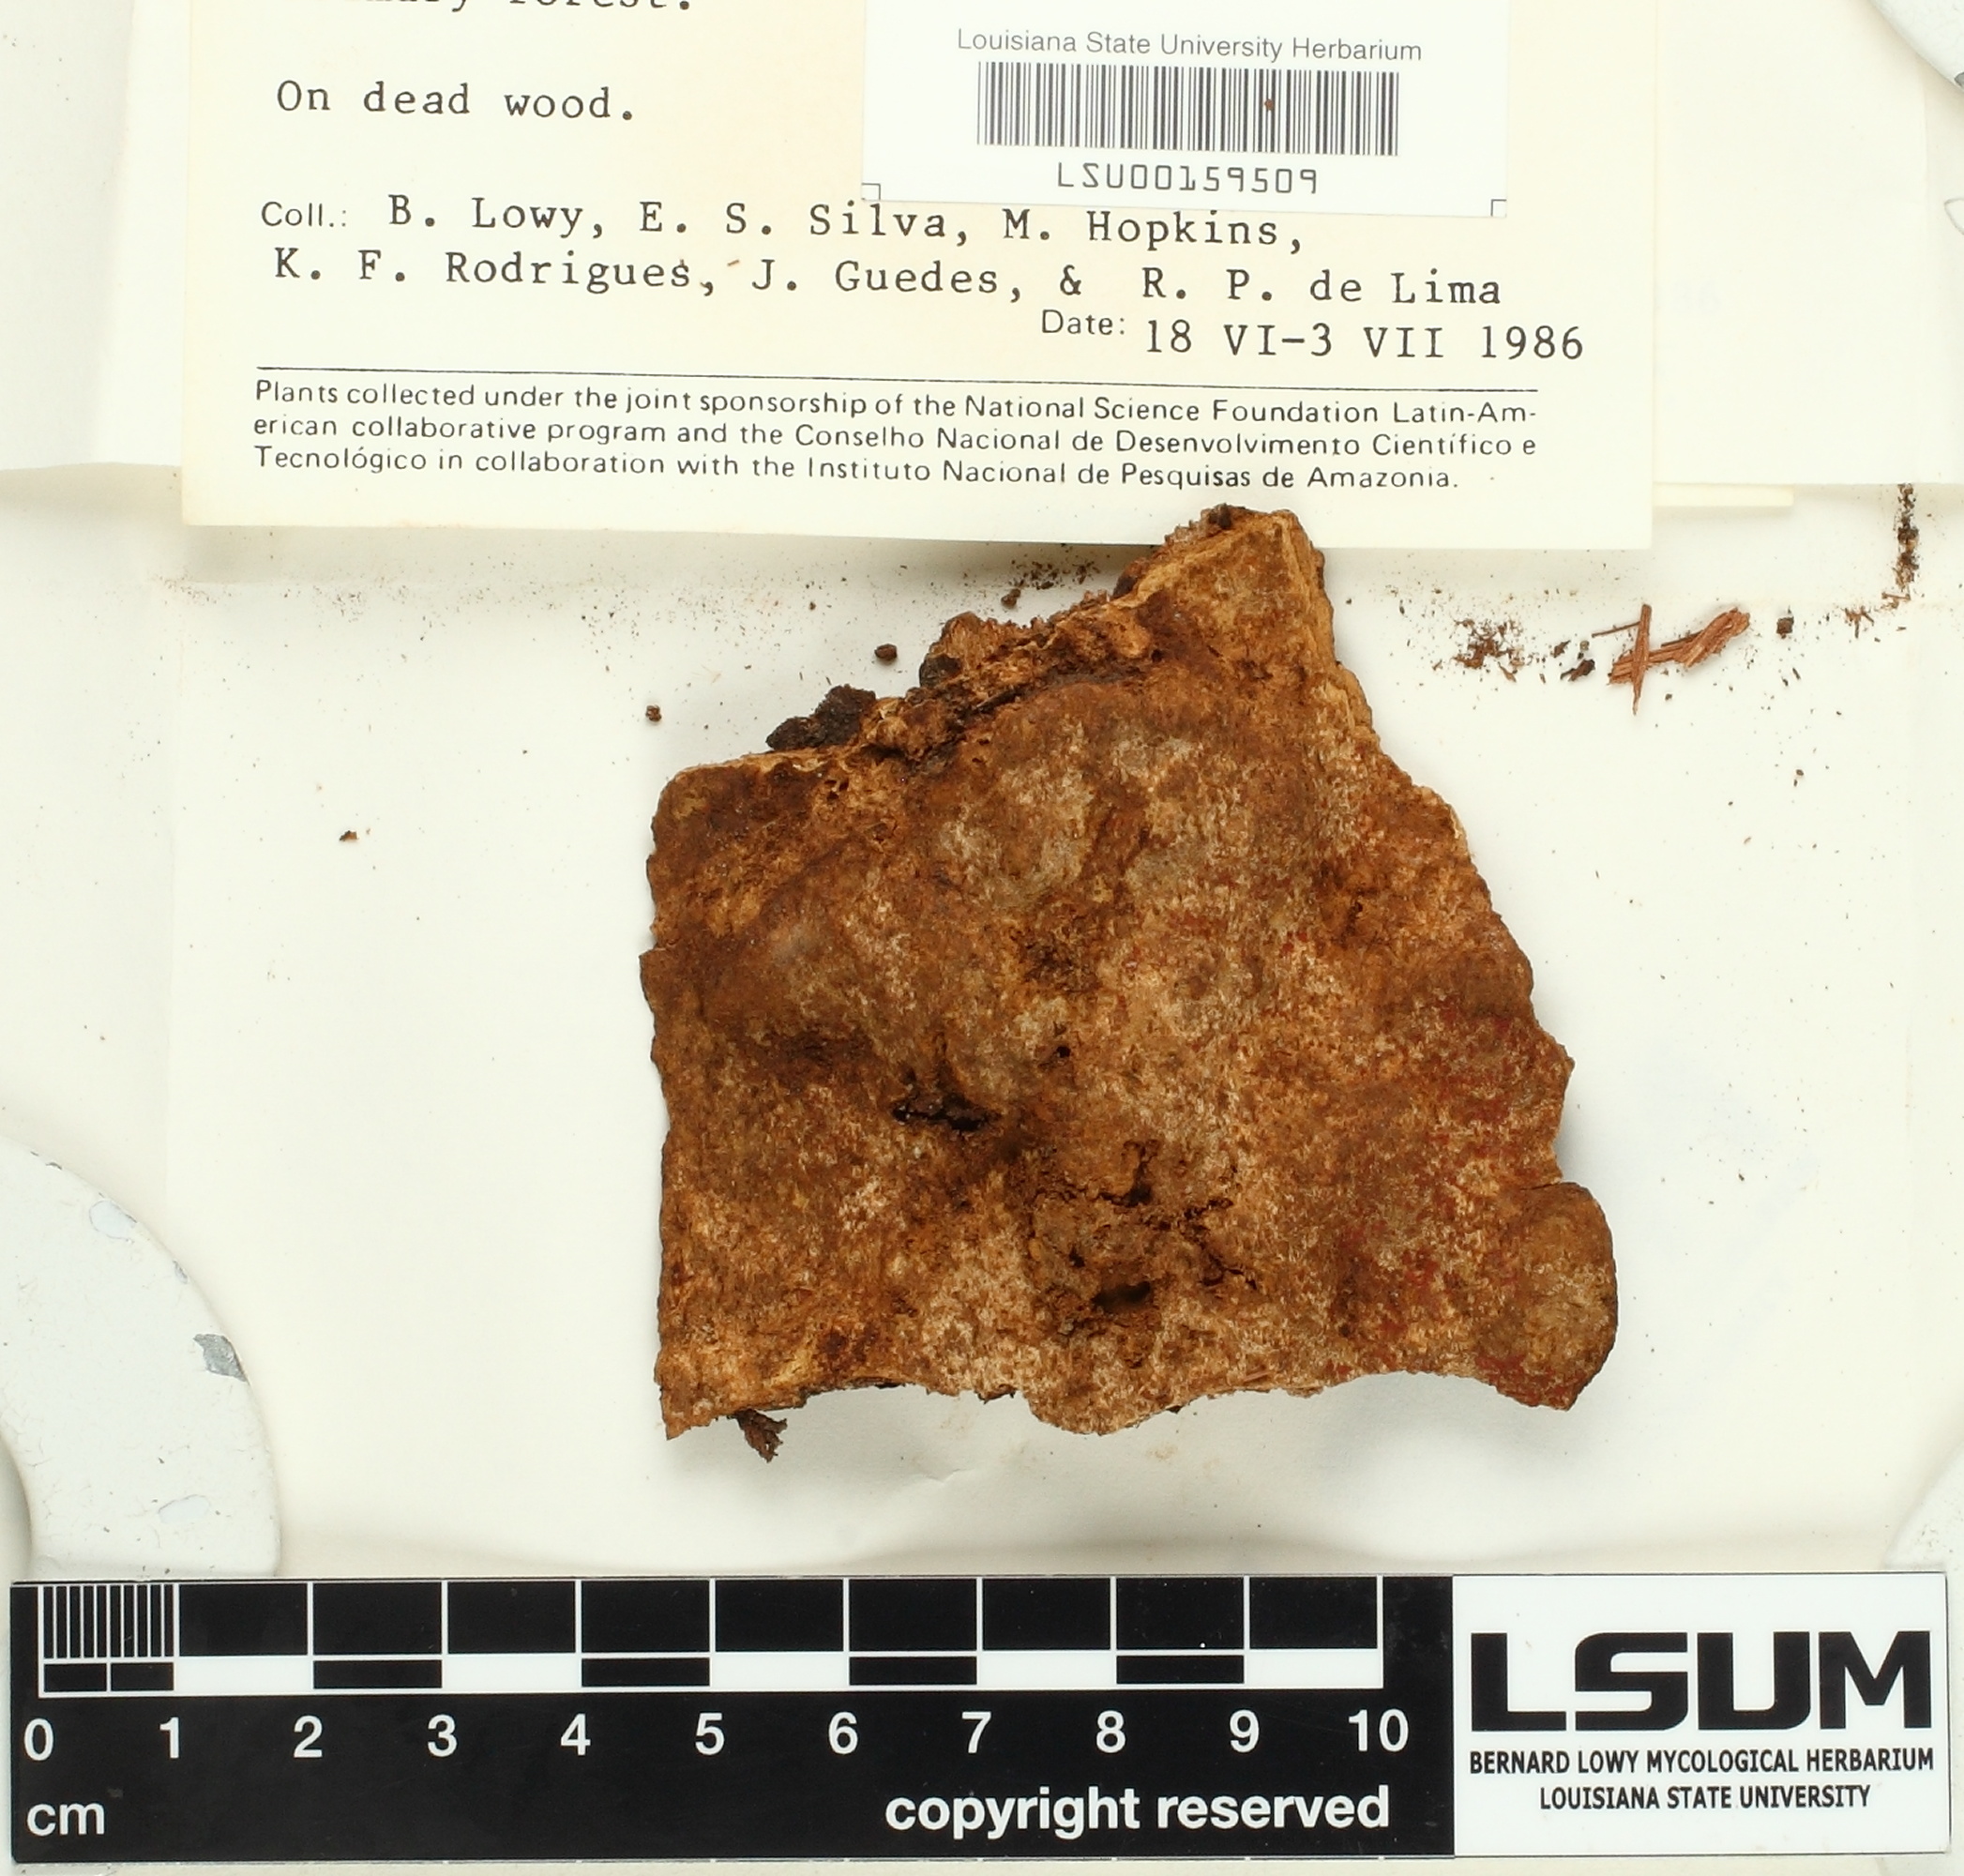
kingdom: Fungi
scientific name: Fungi
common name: Fungi
